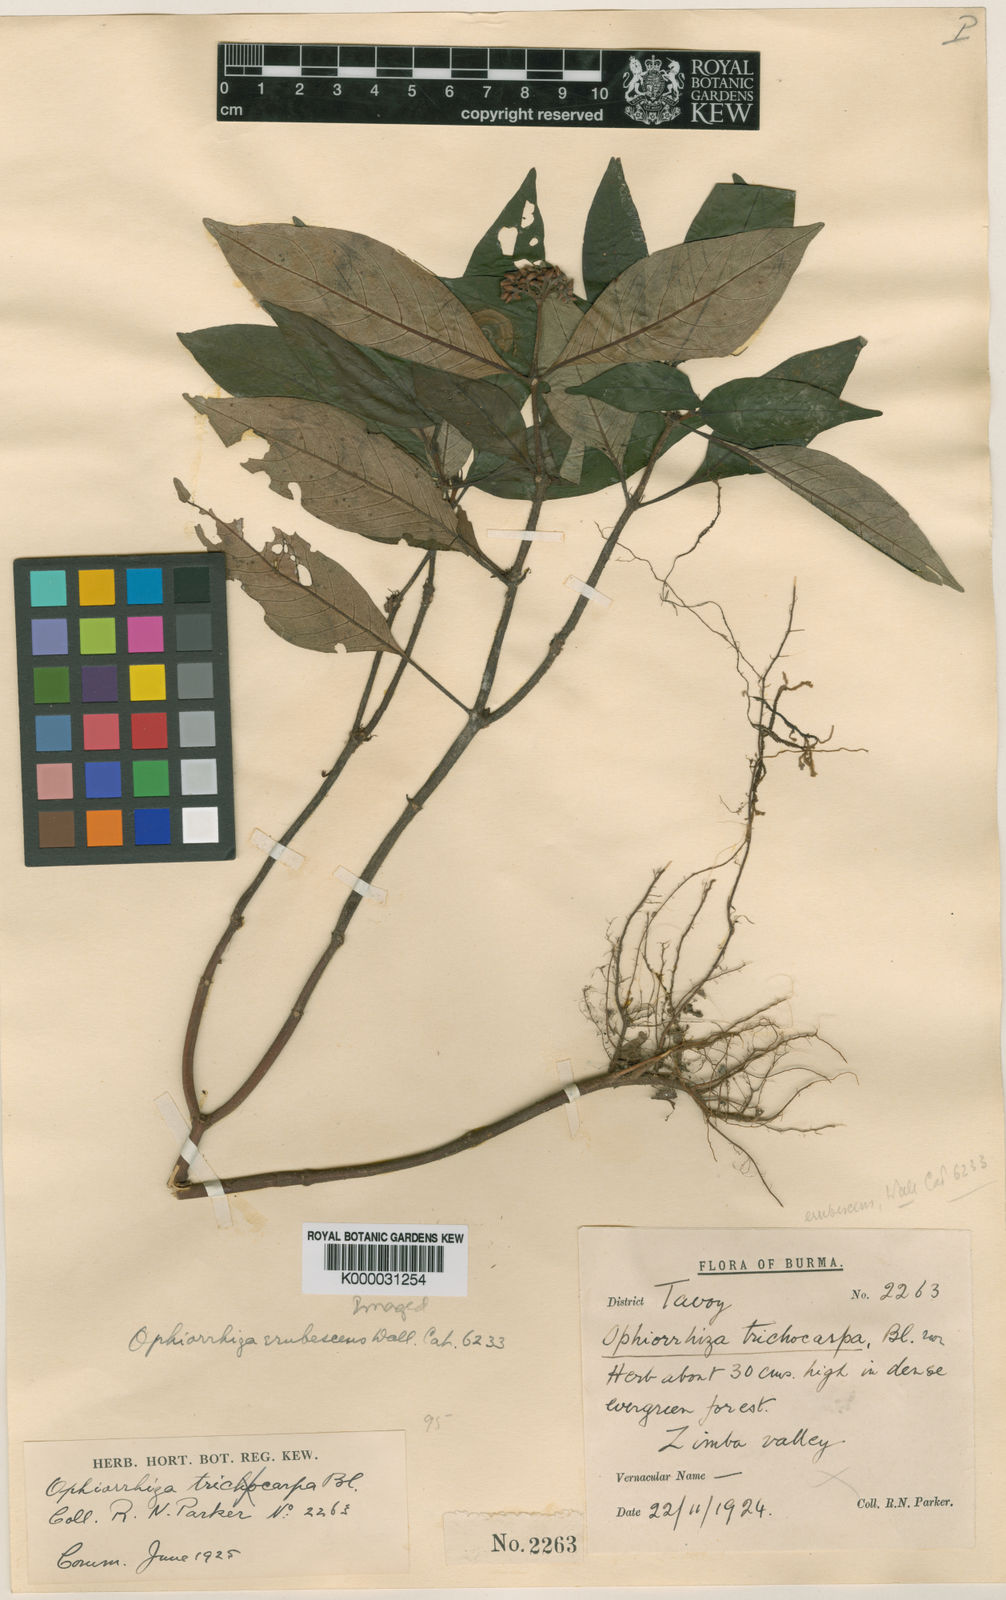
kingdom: Plantae
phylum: Tracheophyta
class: Magnoliopsida
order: Gentianales
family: Rubiaceae
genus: Ophiorrhiza
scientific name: Ophiorrhiza
